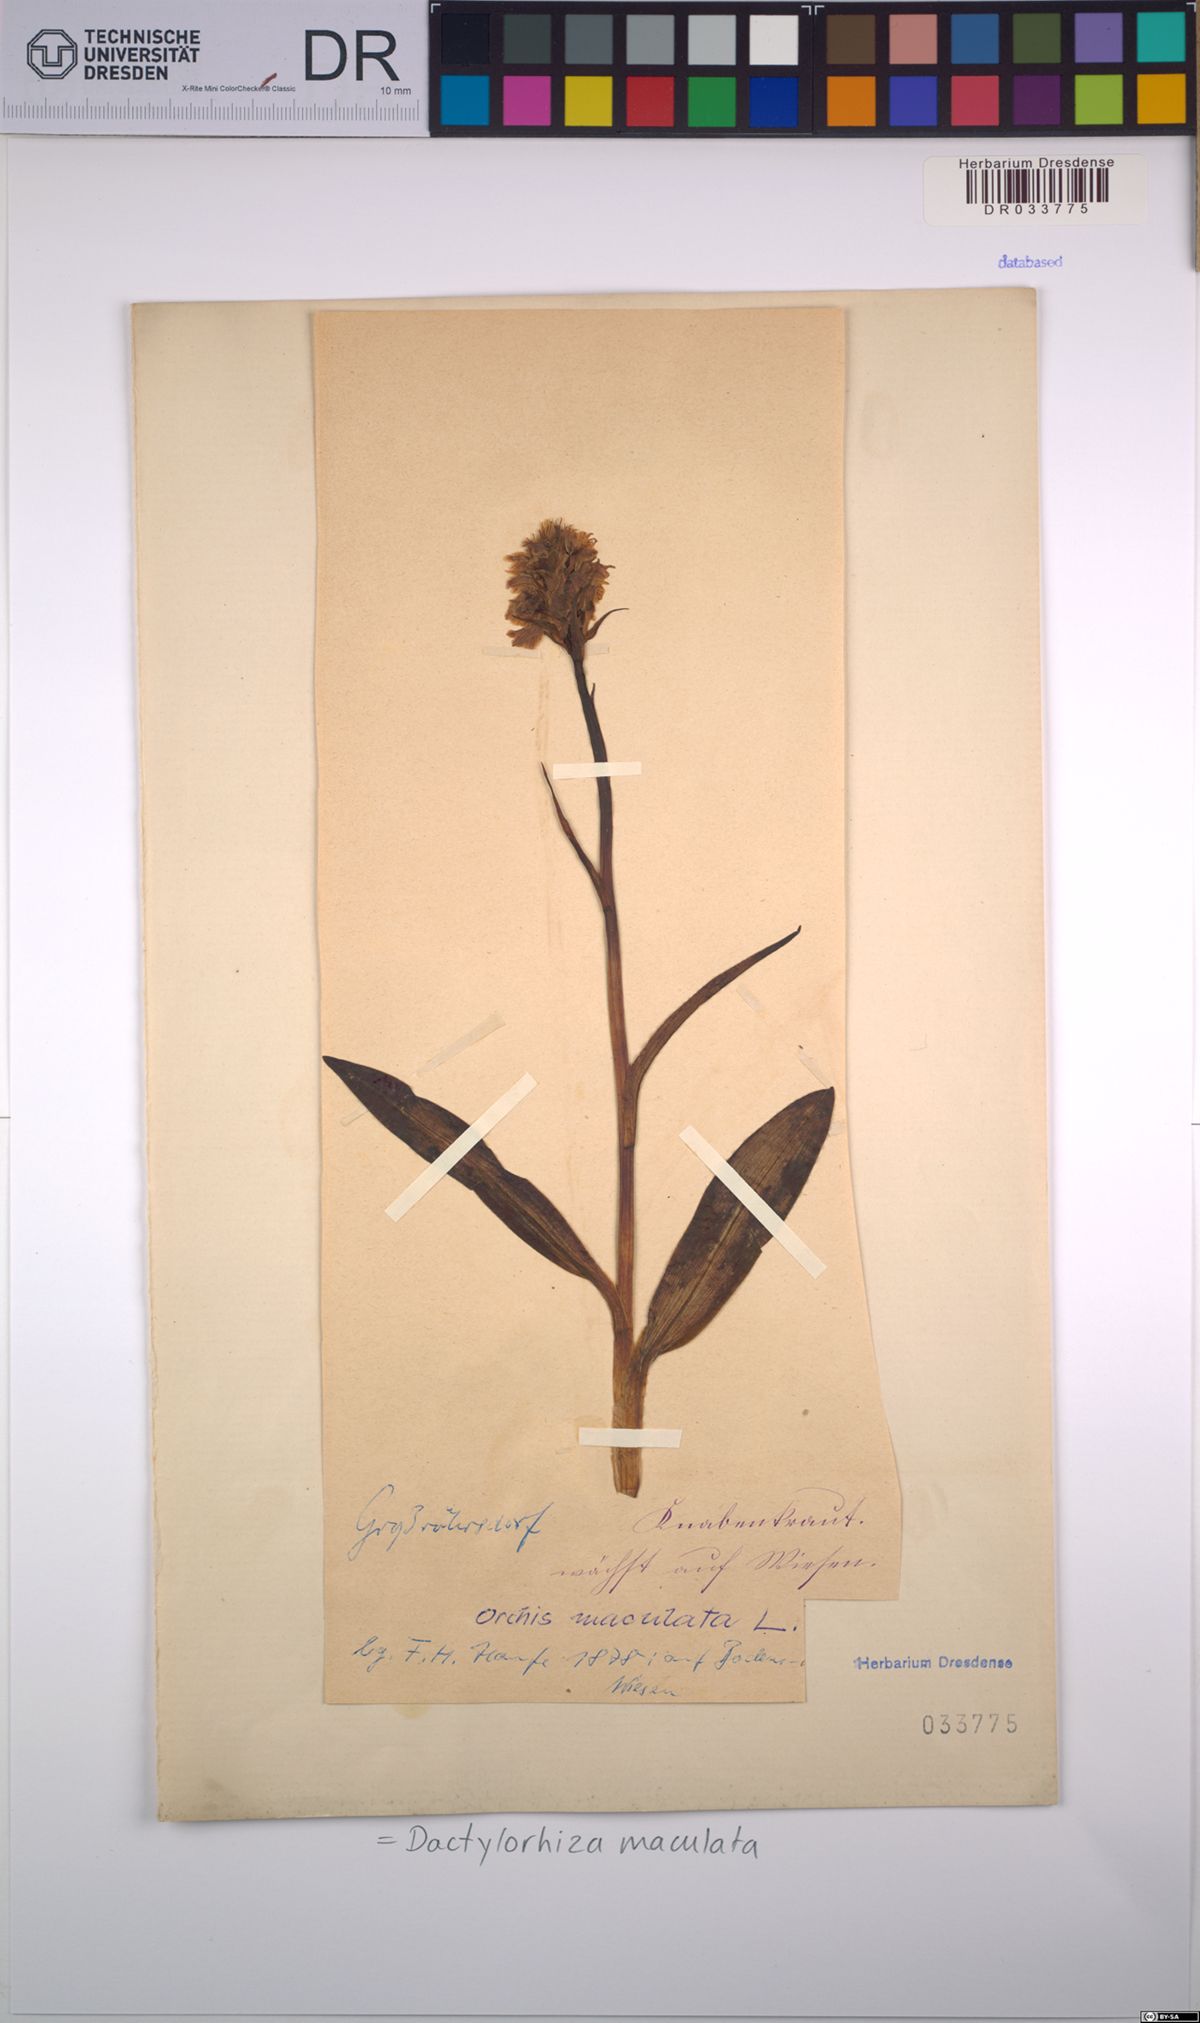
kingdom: Plantae
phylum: Tracheophyta
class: Liliopsida
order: Asparagales
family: Orchidaceae
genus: Dactylorhiza
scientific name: Dactylorhiza maculata
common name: Heath spotted-orchid
